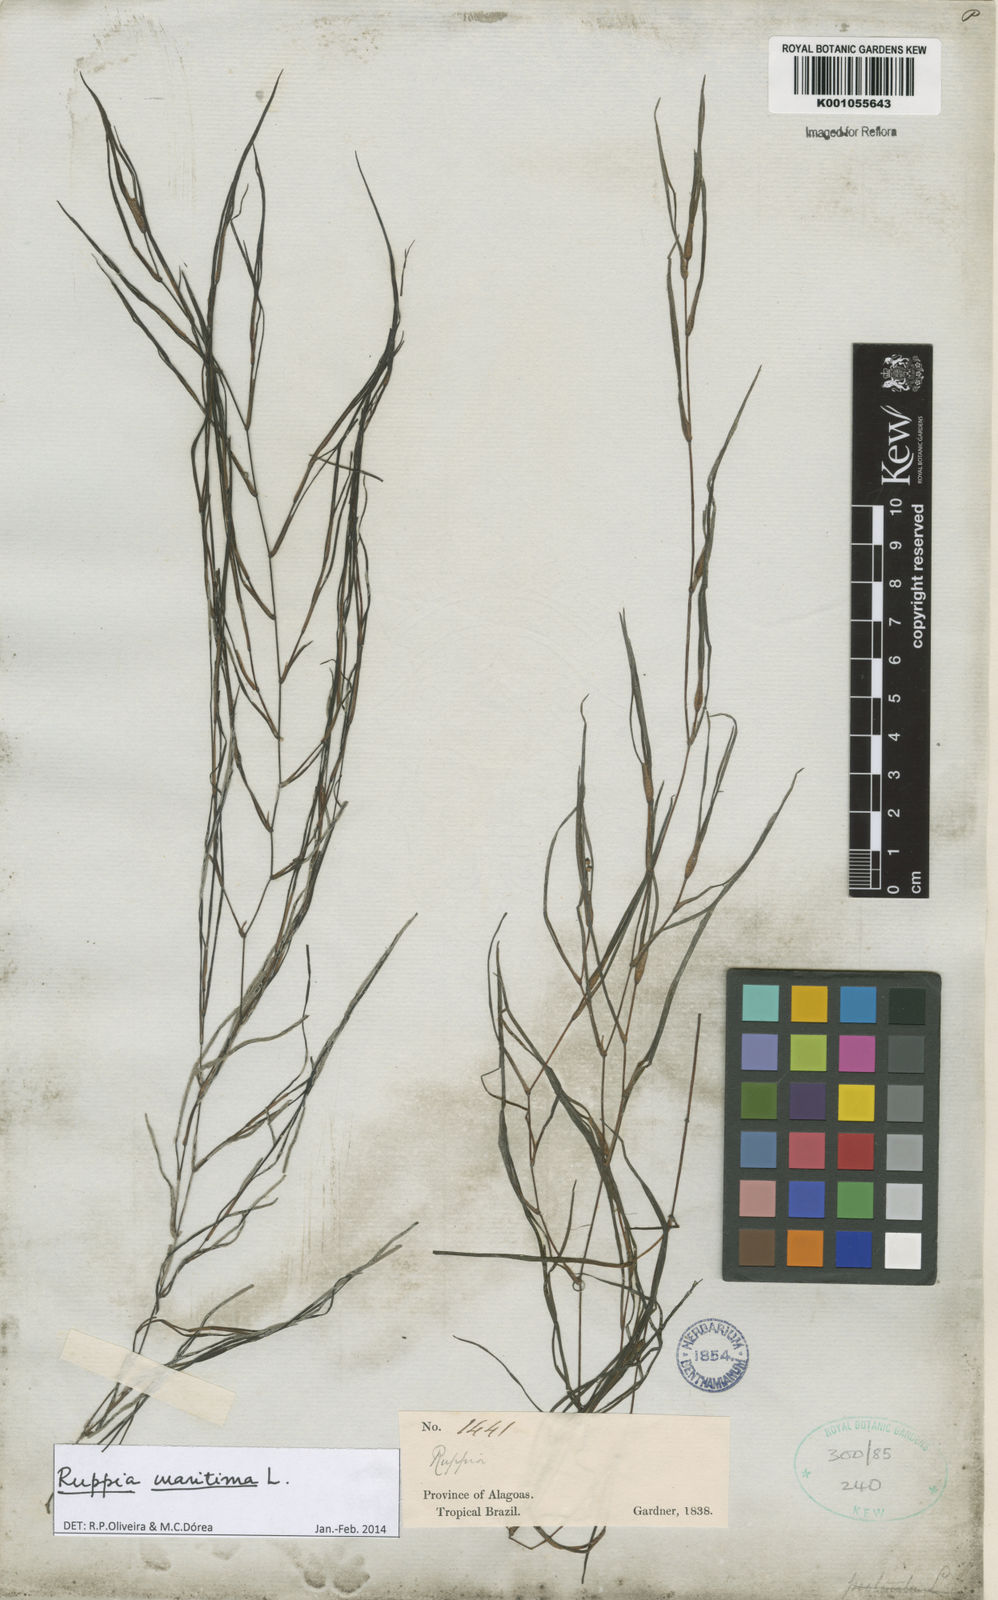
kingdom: Plantae
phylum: Tracheophyta
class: Liliopsida
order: Alismatales
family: Ruppiaceae
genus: Ruppia
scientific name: Ruppia maritima
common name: Beaked tasselweed
